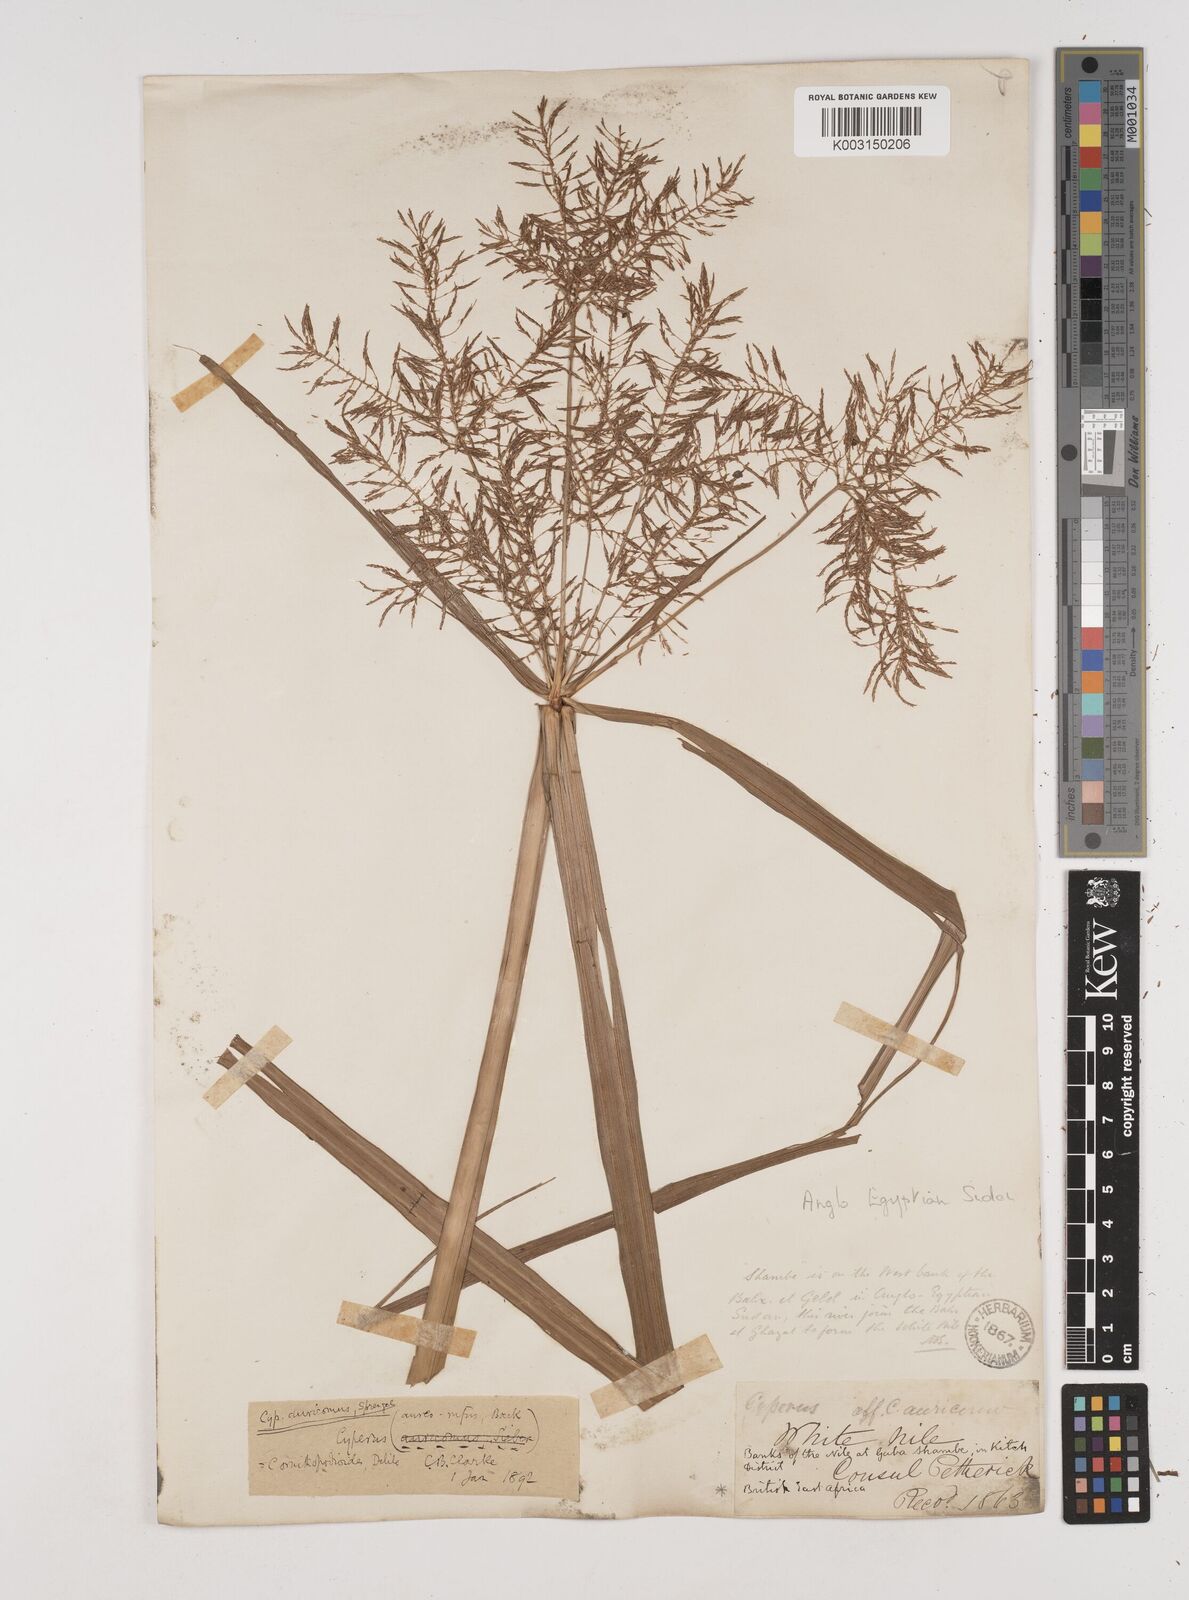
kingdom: Plantae
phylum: Tracheophyta
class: Liliopsida
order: Poales
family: Cyperaceae
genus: Cyperus
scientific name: Cyperus digitatus
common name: Finger flatsedge
